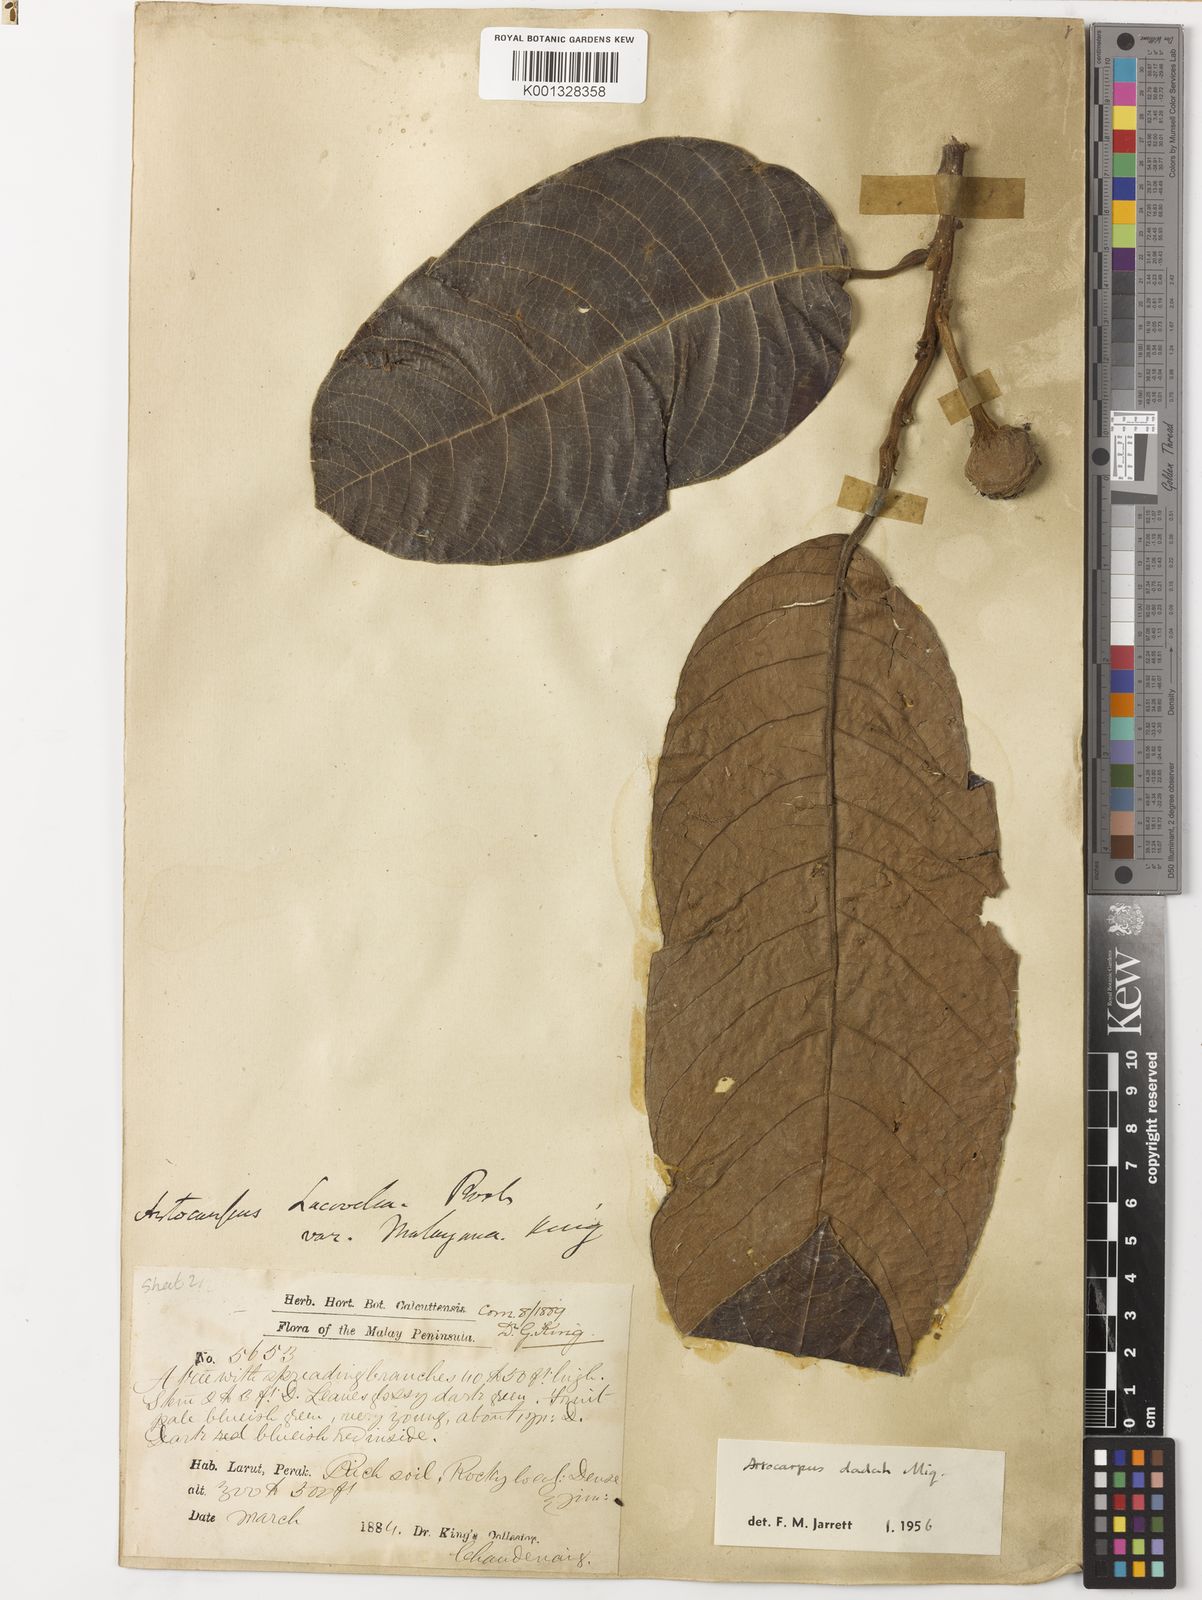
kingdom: Plantae
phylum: Tracheophyta
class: Magnoliopsida
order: Rosales
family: Moraceae
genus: Artocarpus
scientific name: Artocarpus lacucha
